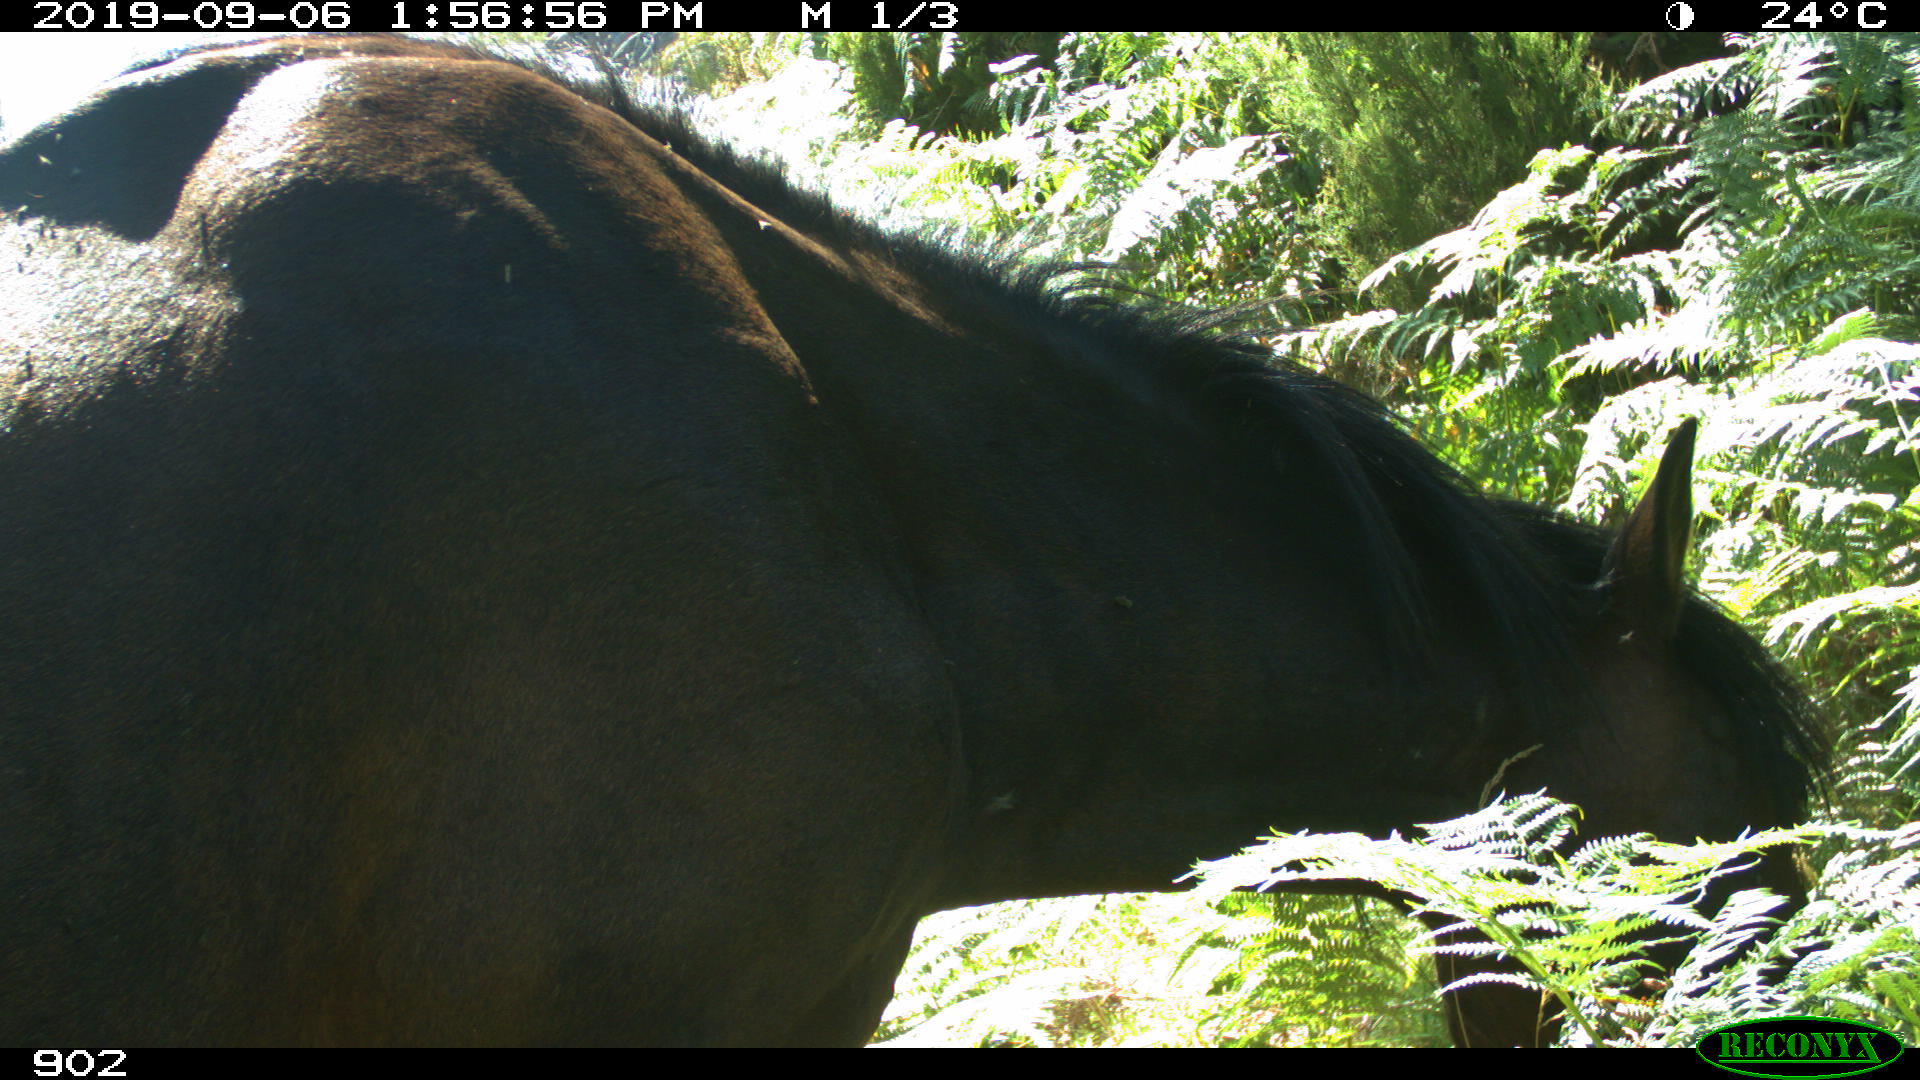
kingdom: Animalia
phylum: Chordata
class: Mammalia
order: Perissodactyla
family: Equidae
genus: Equus
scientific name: Equus caballus
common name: Horse
